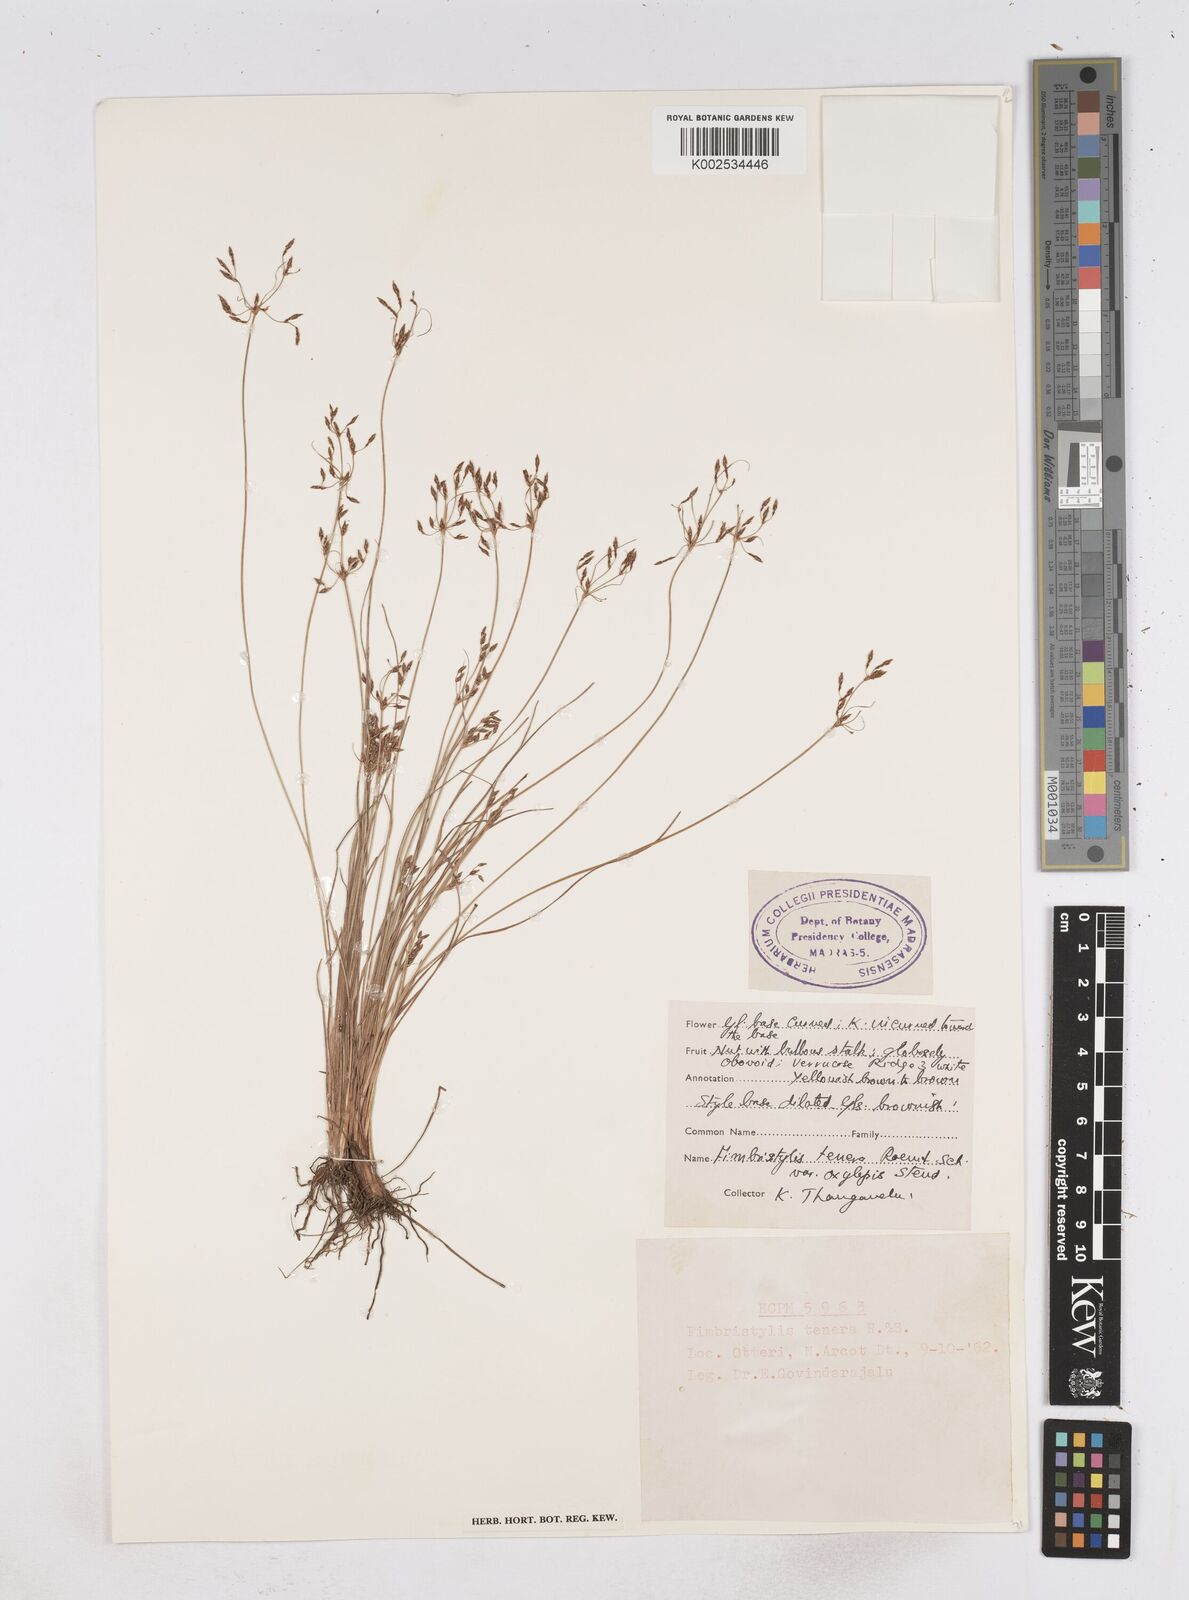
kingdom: Plantae
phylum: Tracheophyta
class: Liliopsida
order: Poales
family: Cyperaceae
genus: Fimbristylis
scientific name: Fimbristylis tenera
